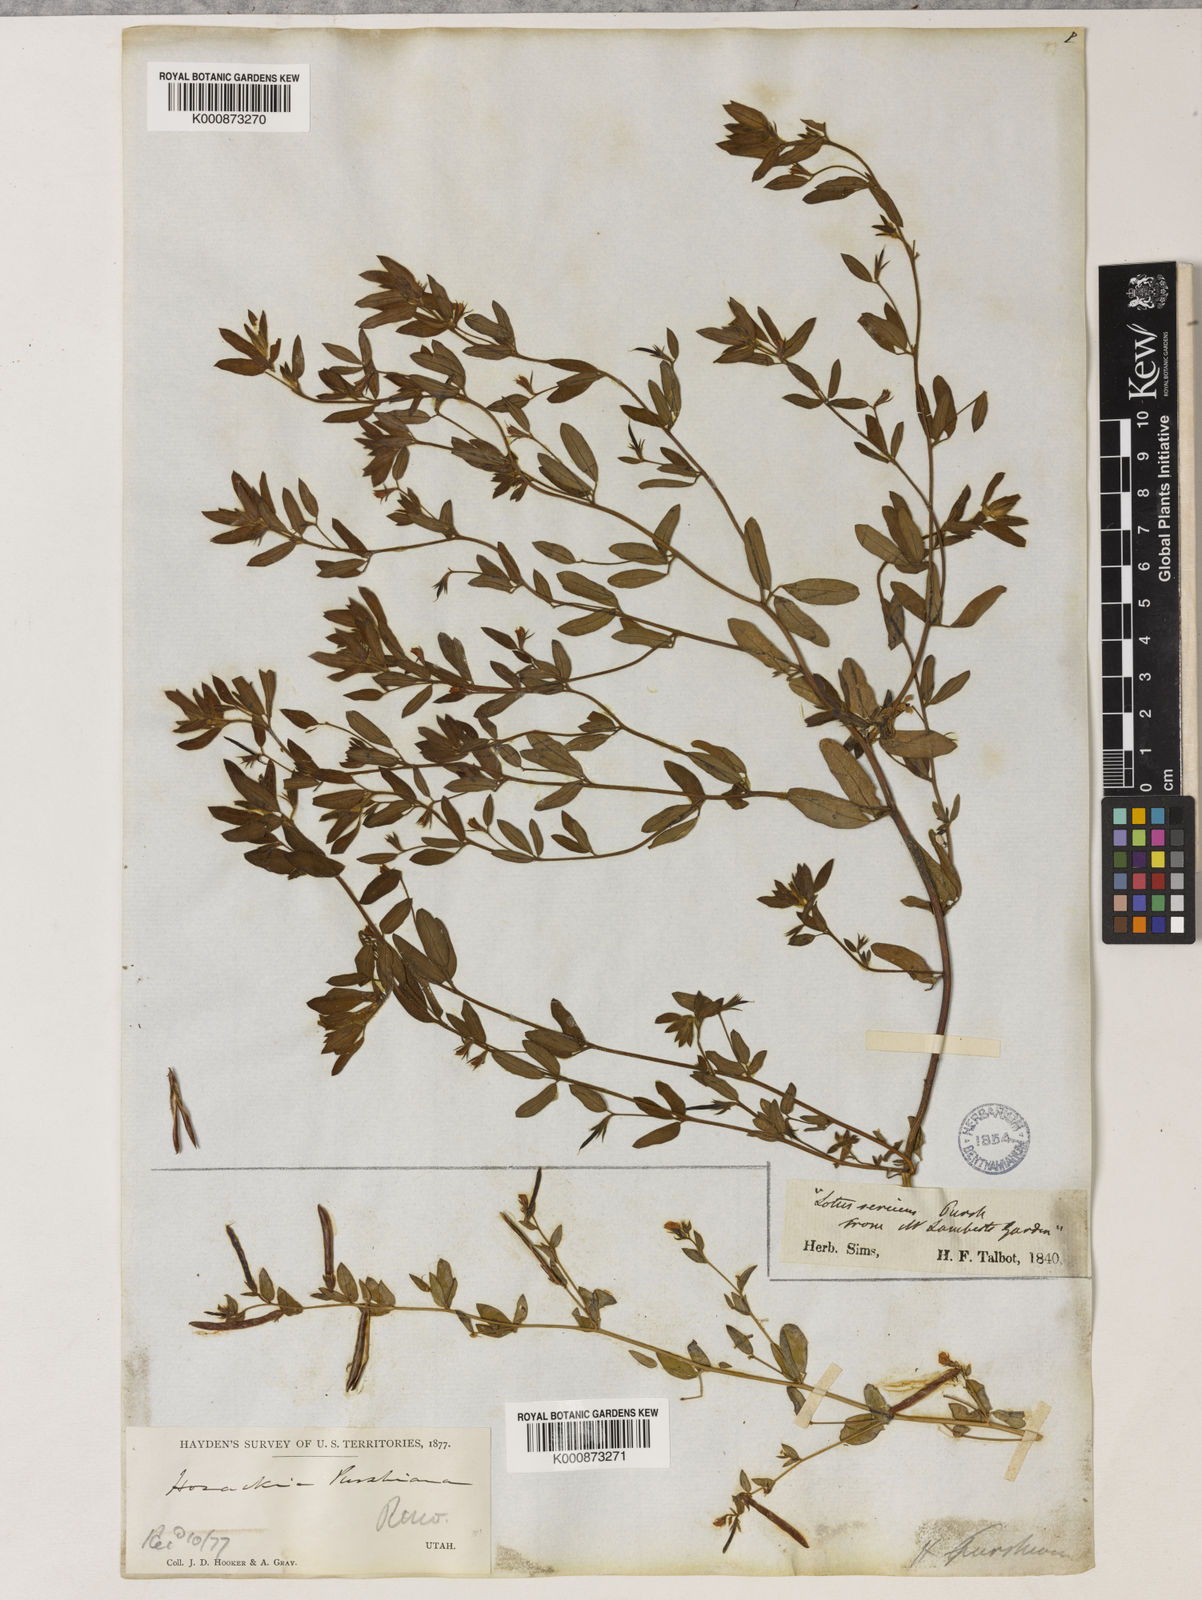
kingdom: Plantae
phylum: Tracheophyta
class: Magnoliopsida
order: Fabales
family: Fabaceae
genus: Collaea
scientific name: Collaea speciosa
